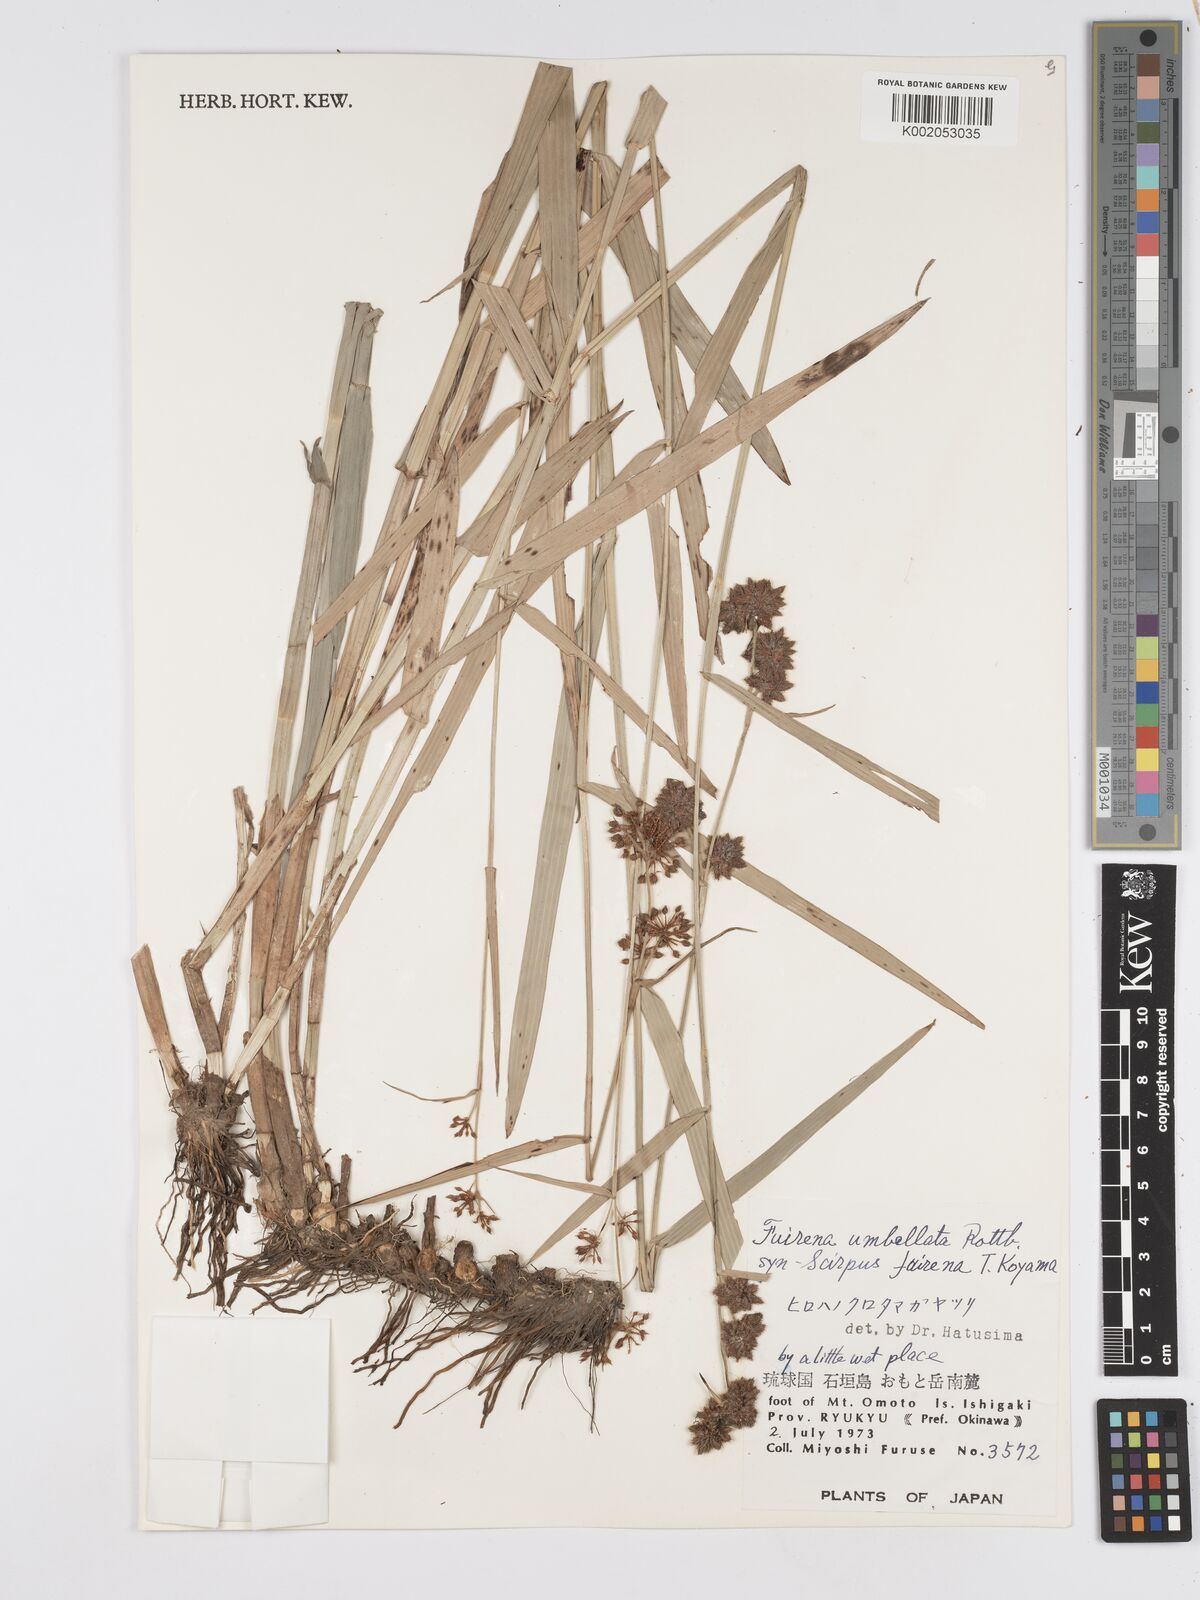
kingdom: Plantae
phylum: Tracheophyta
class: Liliopsida
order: Poales
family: Cyperaceae
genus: Fuirena
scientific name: Fuirena umbellata
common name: Yefen
